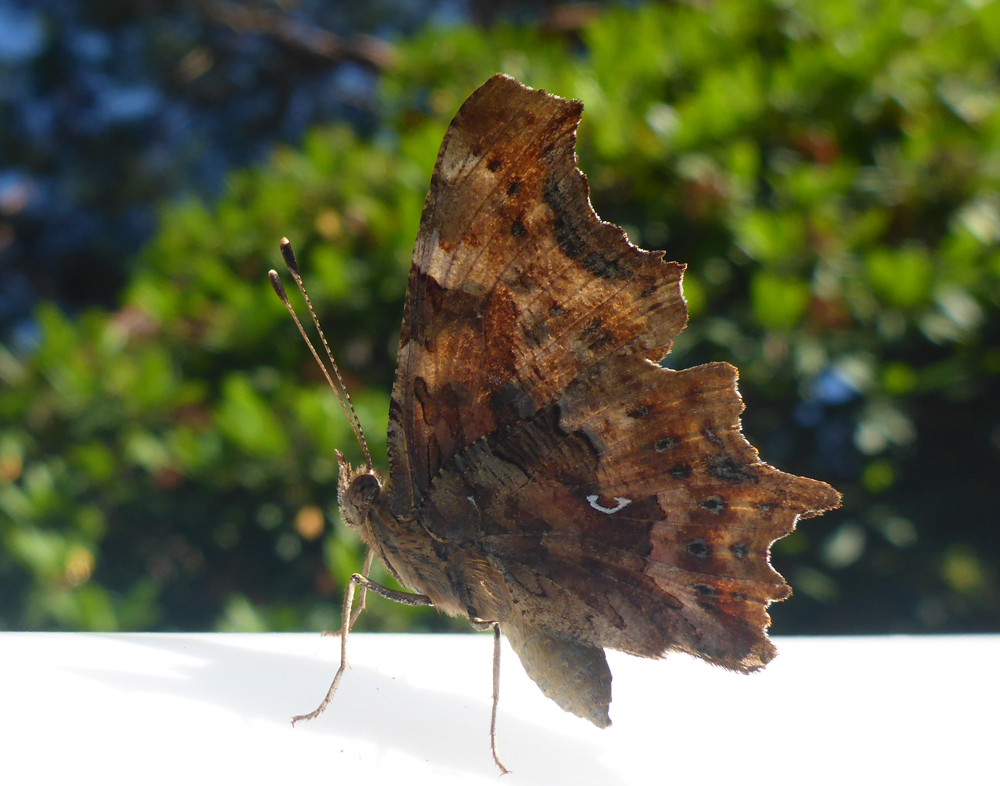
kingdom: Animalia
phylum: Arthropoda
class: Insecta
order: Lepidoptera
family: Nymphalidae
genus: Polygonia
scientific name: Polygonia c-album
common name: Comma
